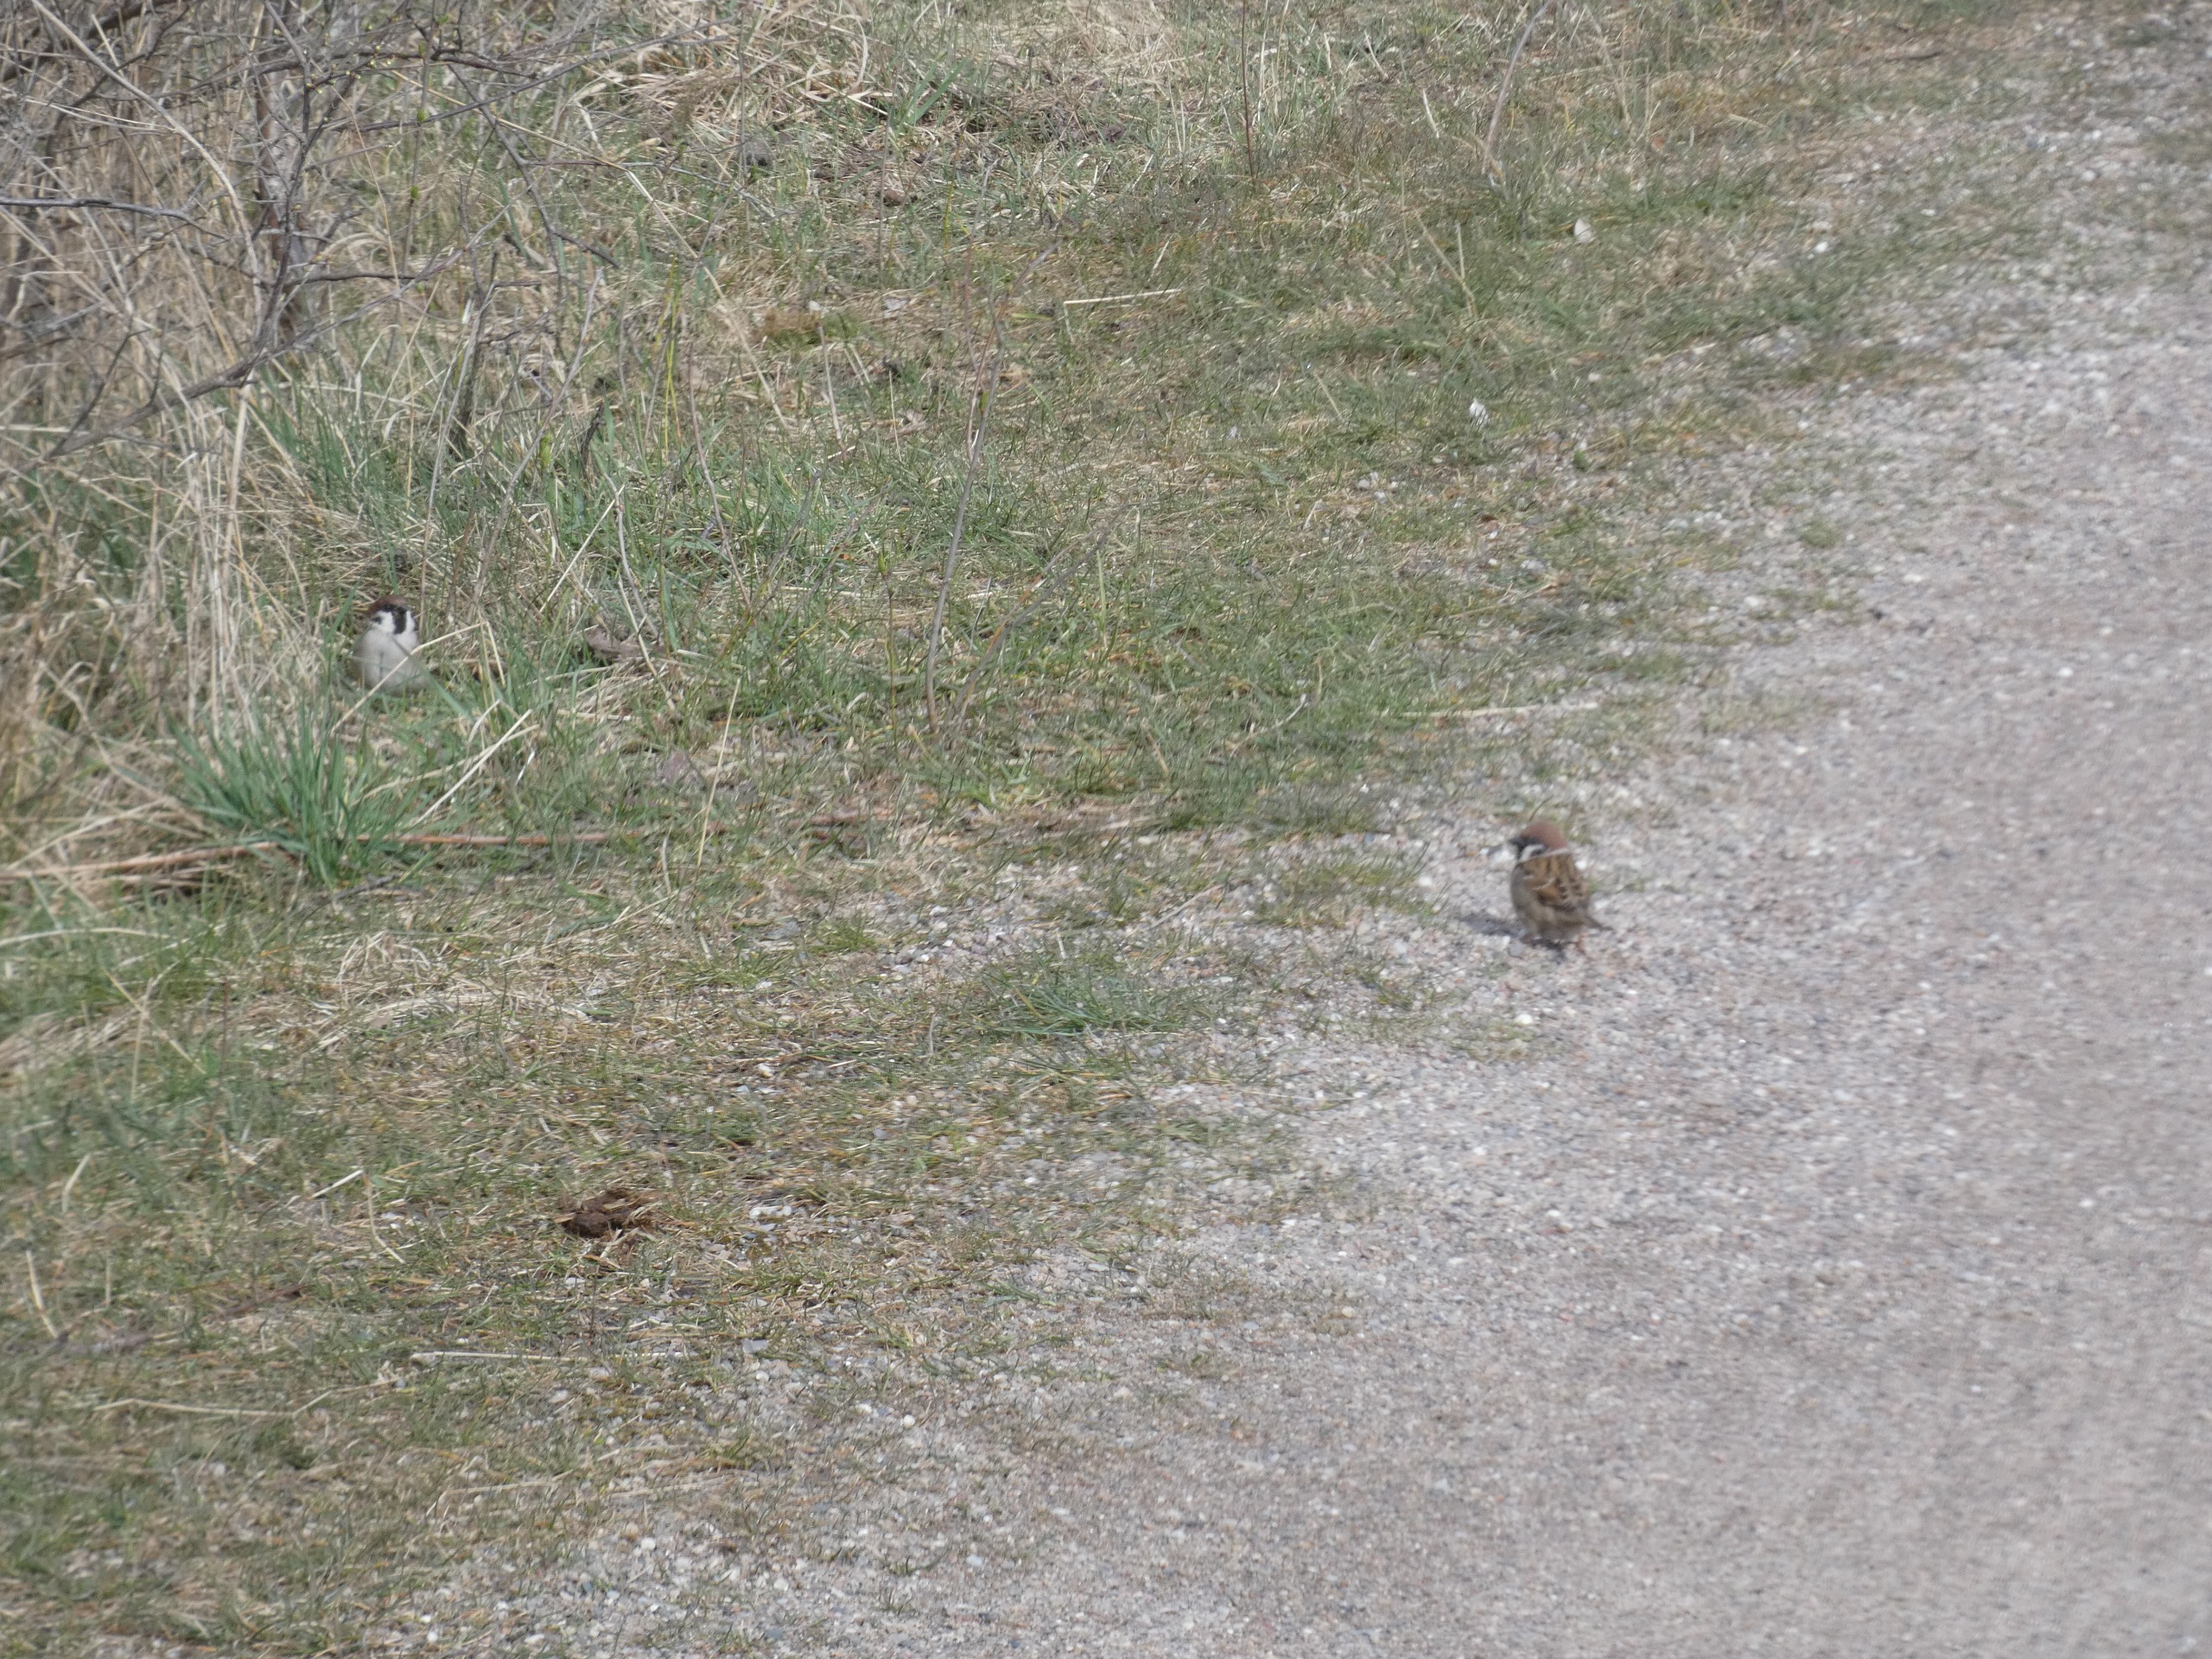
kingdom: Animalia
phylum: Chordata
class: Aves
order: Passeriformes
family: Passeridae
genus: Passer
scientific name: Passer montanus
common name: Skovspurv
